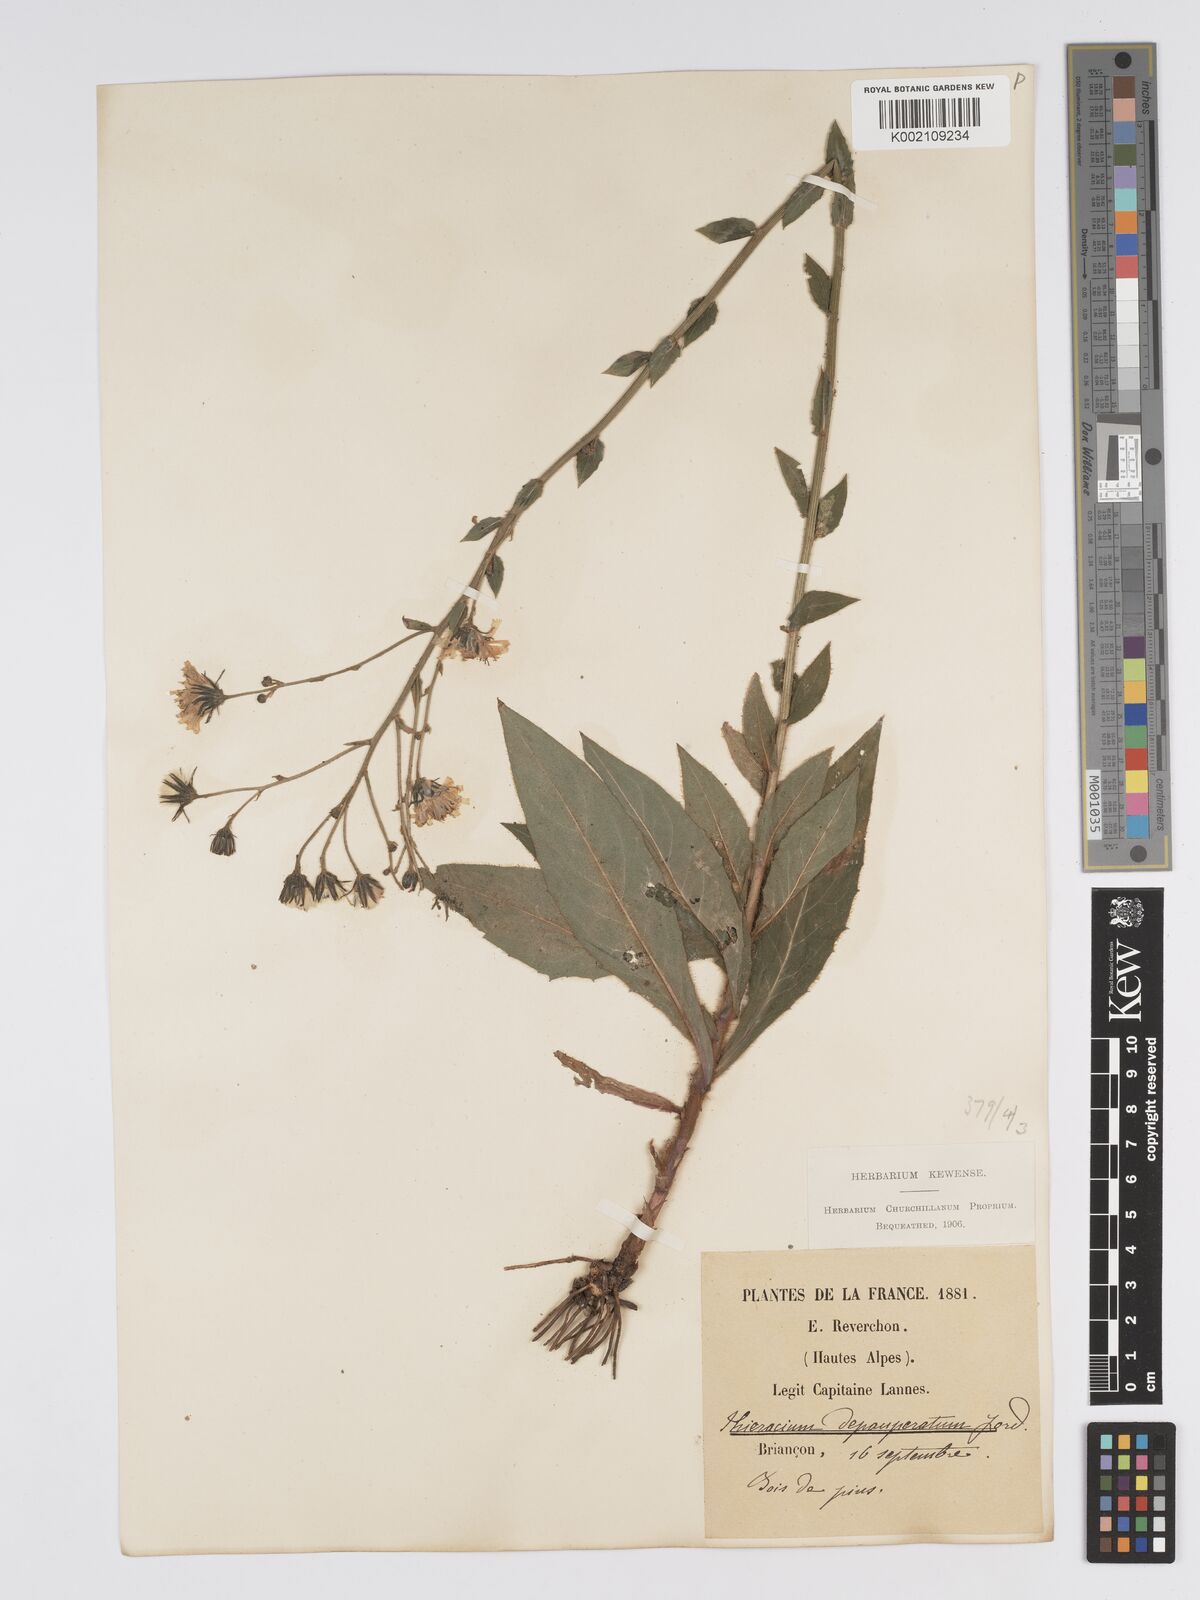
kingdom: Plantae
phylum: Tracheophyta
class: Magnoliopsida
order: Asterales
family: Asteraceae
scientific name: Asteraceae
